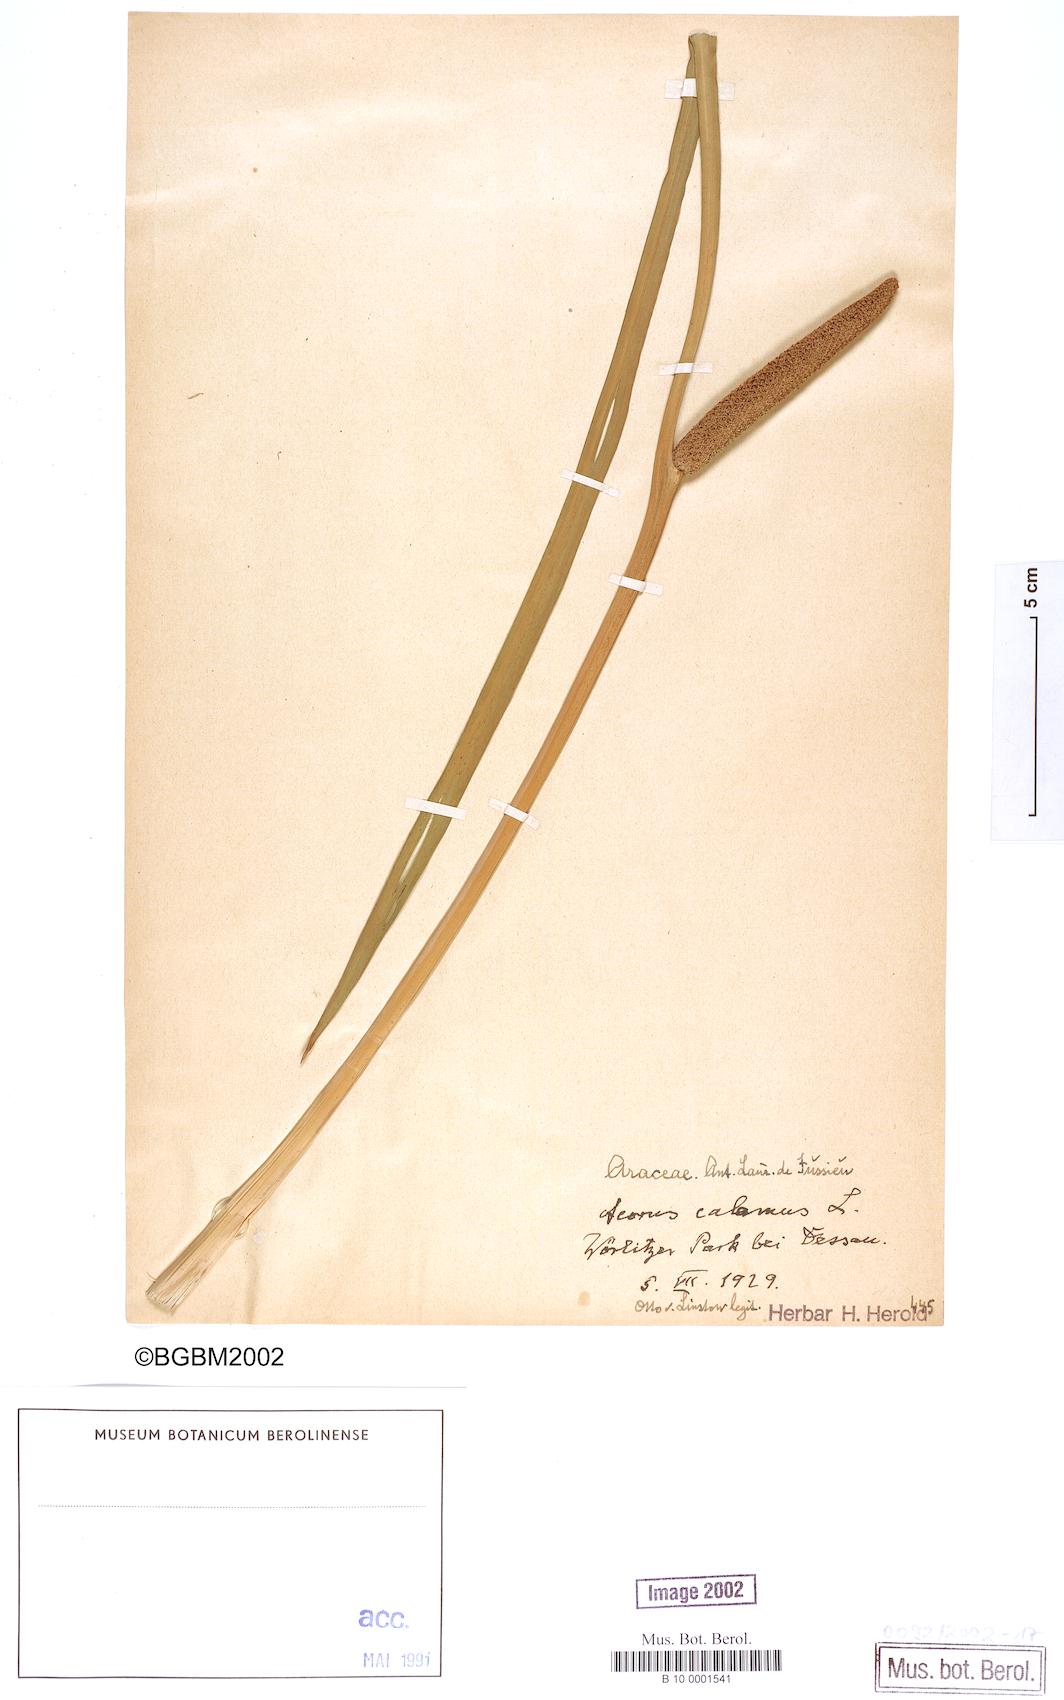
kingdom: Plantae
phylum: Tracheophyta
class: Liliopsida
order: Acorales
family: Acoraceae
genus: Acorus
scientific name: Acorus calamus
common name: Sweet-flag
